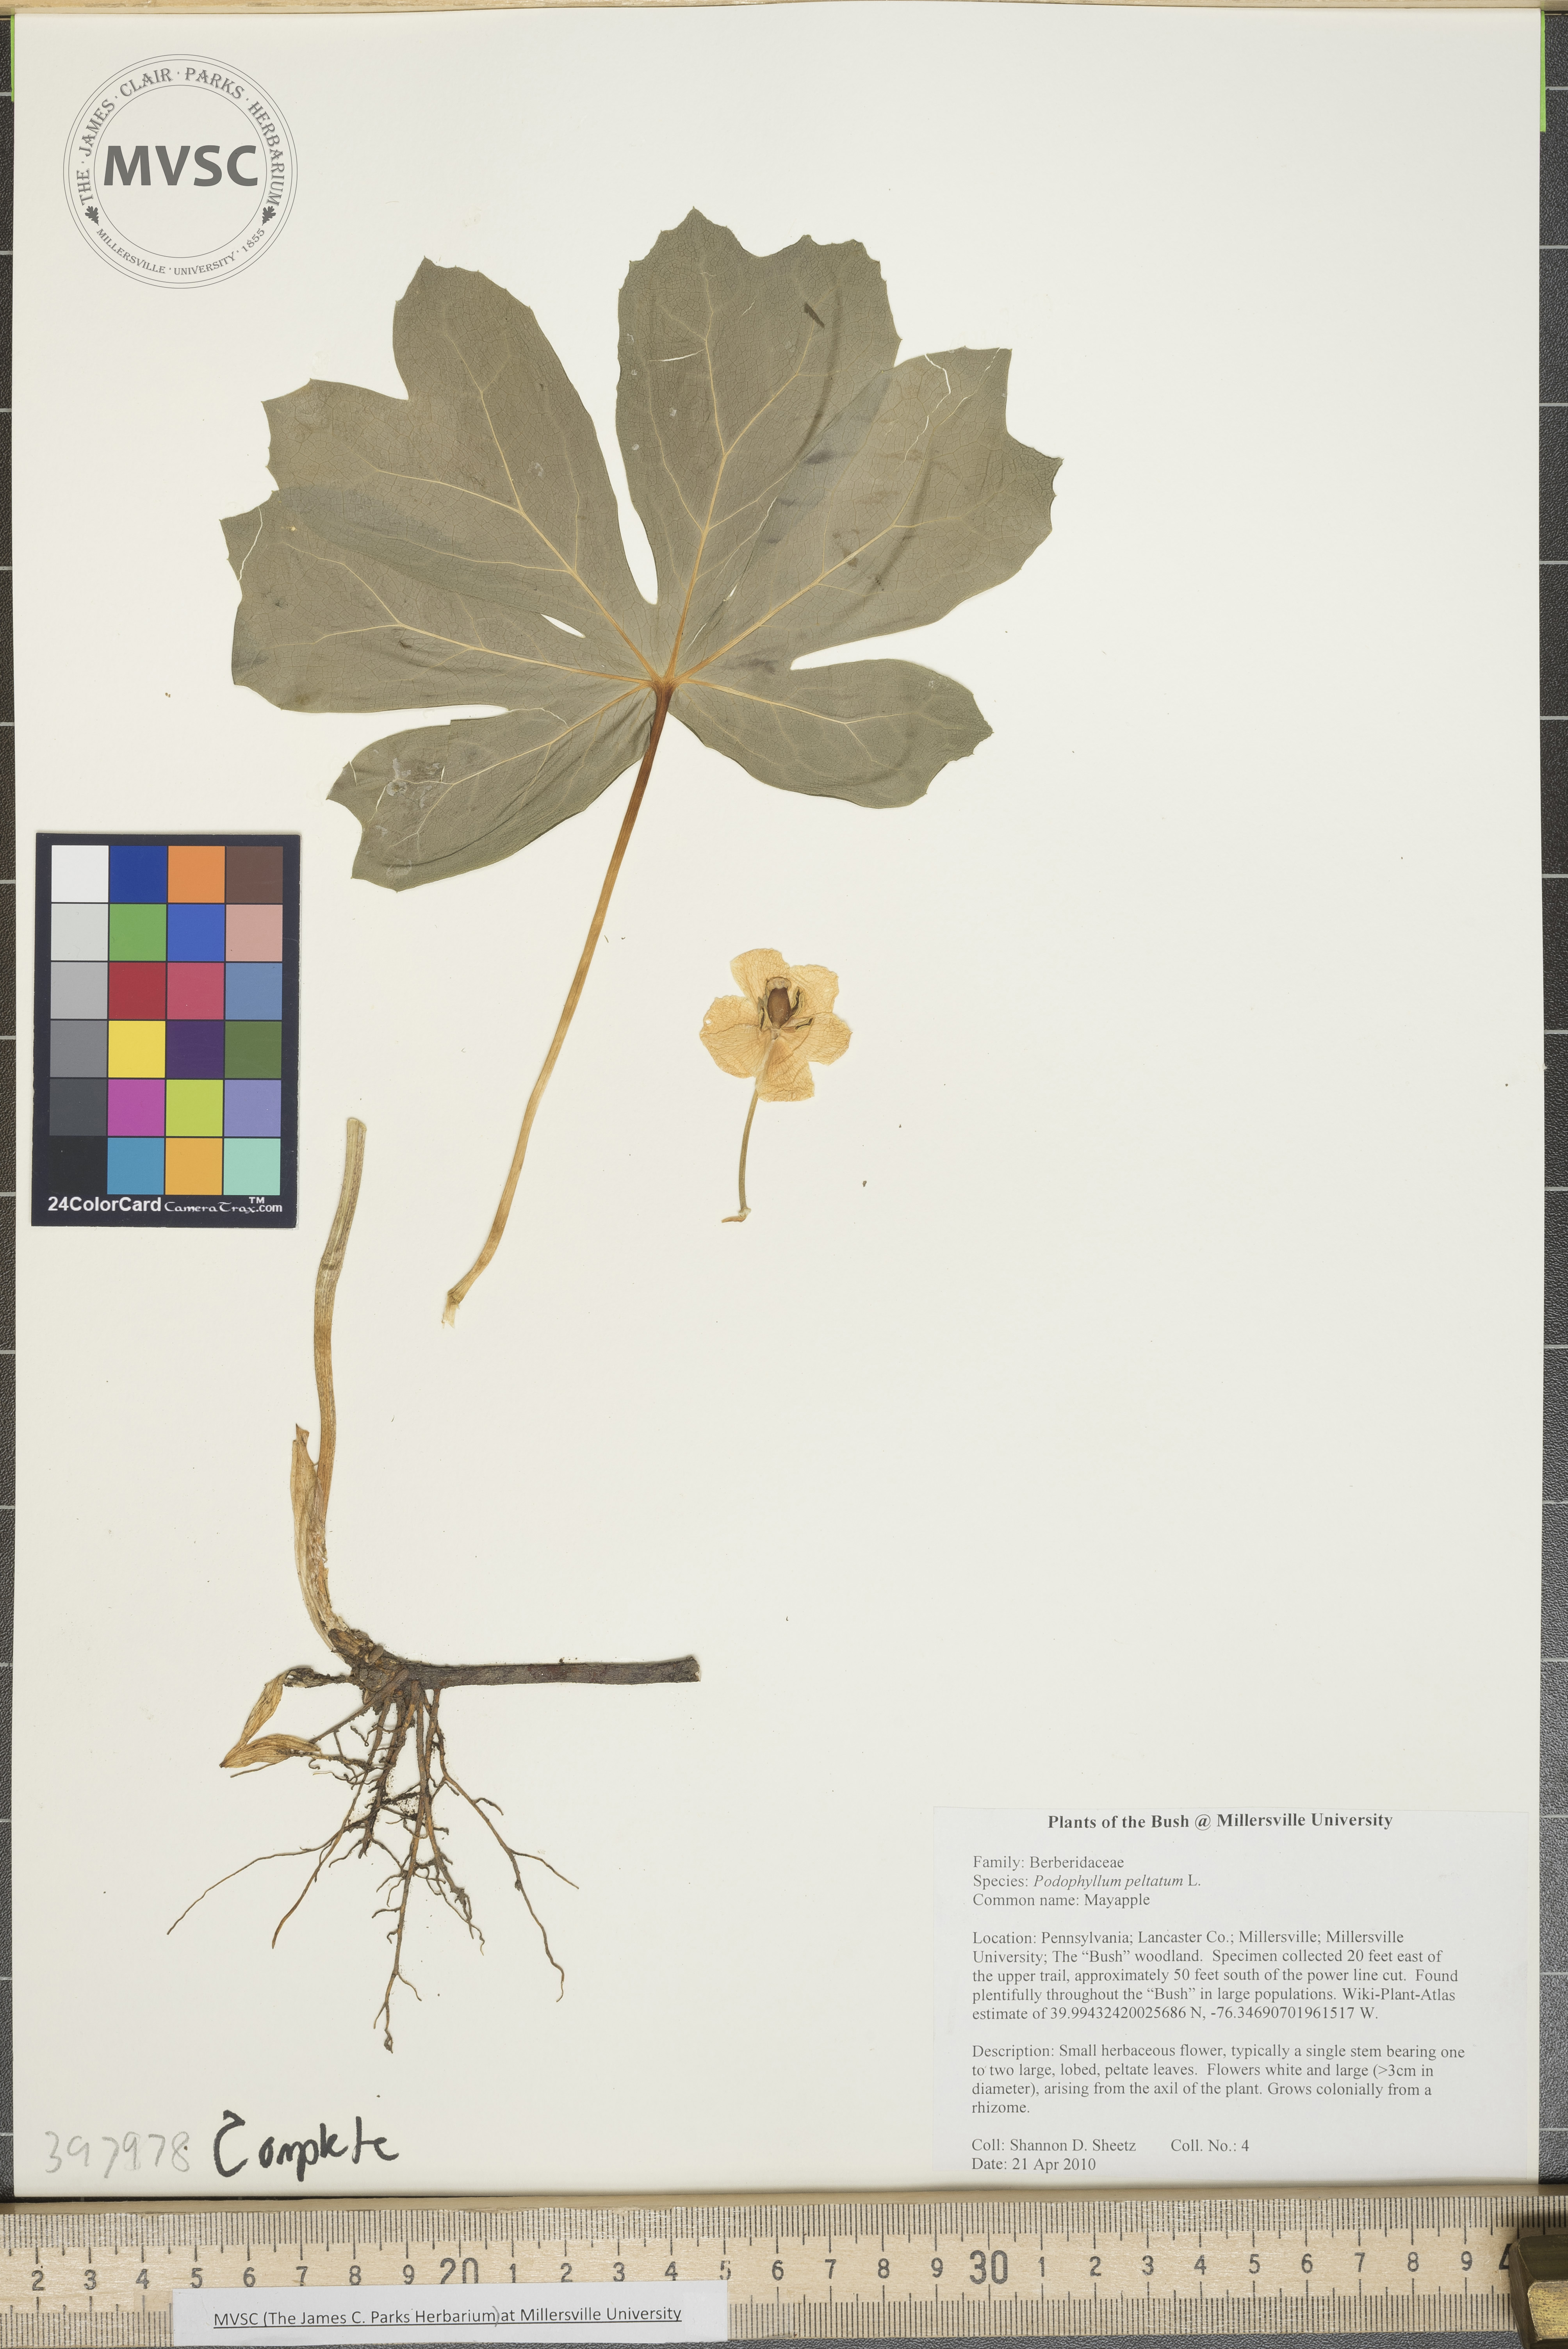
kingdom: Plantae
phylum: Tracheophyta
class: Magnoliopsida
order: Ranunculales
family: Berberidaceae
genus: Podophyllum
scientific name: Podophyllum peltatum
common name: Mayapple
